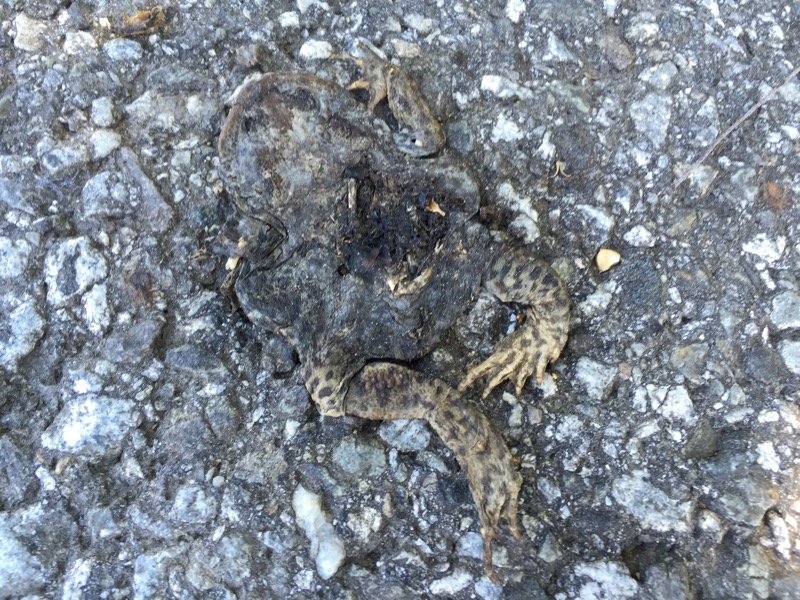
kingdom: Animalia
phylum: Chordata
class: Amphibia
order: Anura
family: Bufonidae
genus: Bufo
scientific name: Bufo bufo
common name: Common toad
